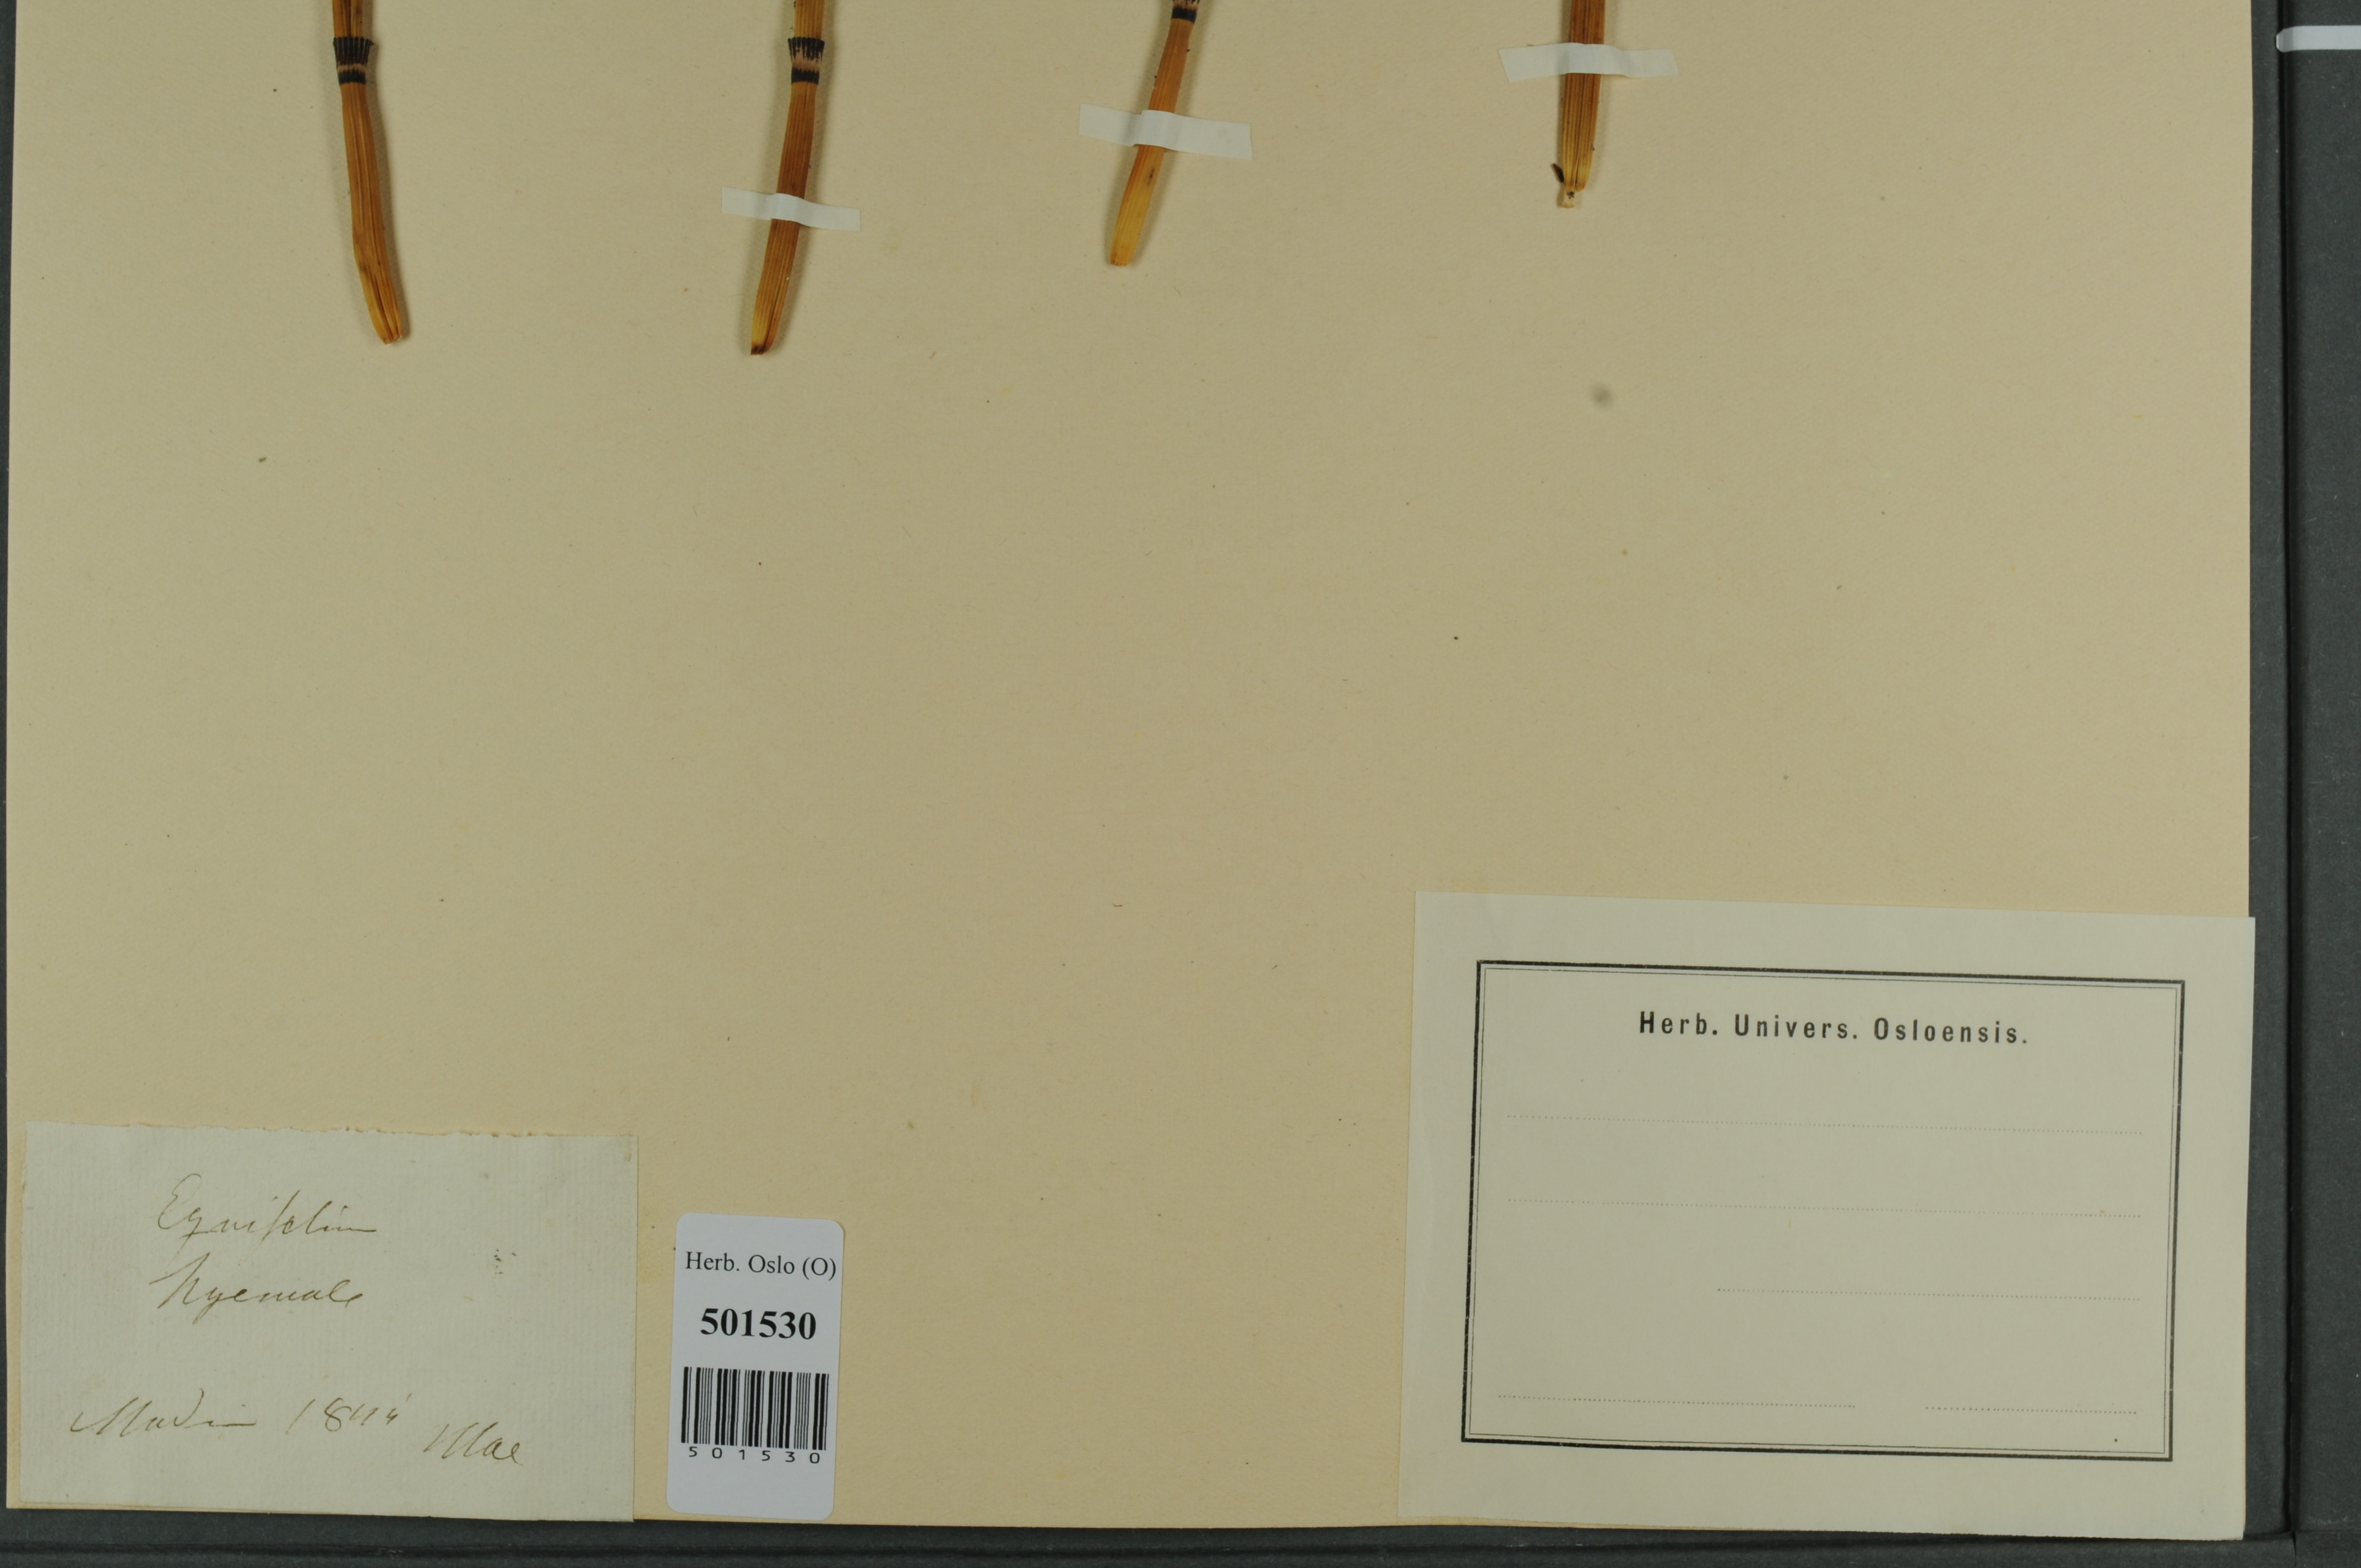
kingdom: Plantae
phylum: Tracheophyta
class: Polypodiopsida
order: Equisetales
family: Equisetaceae
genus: Equisetum
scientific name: Equisetum hyemale
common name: Rough horsetail
